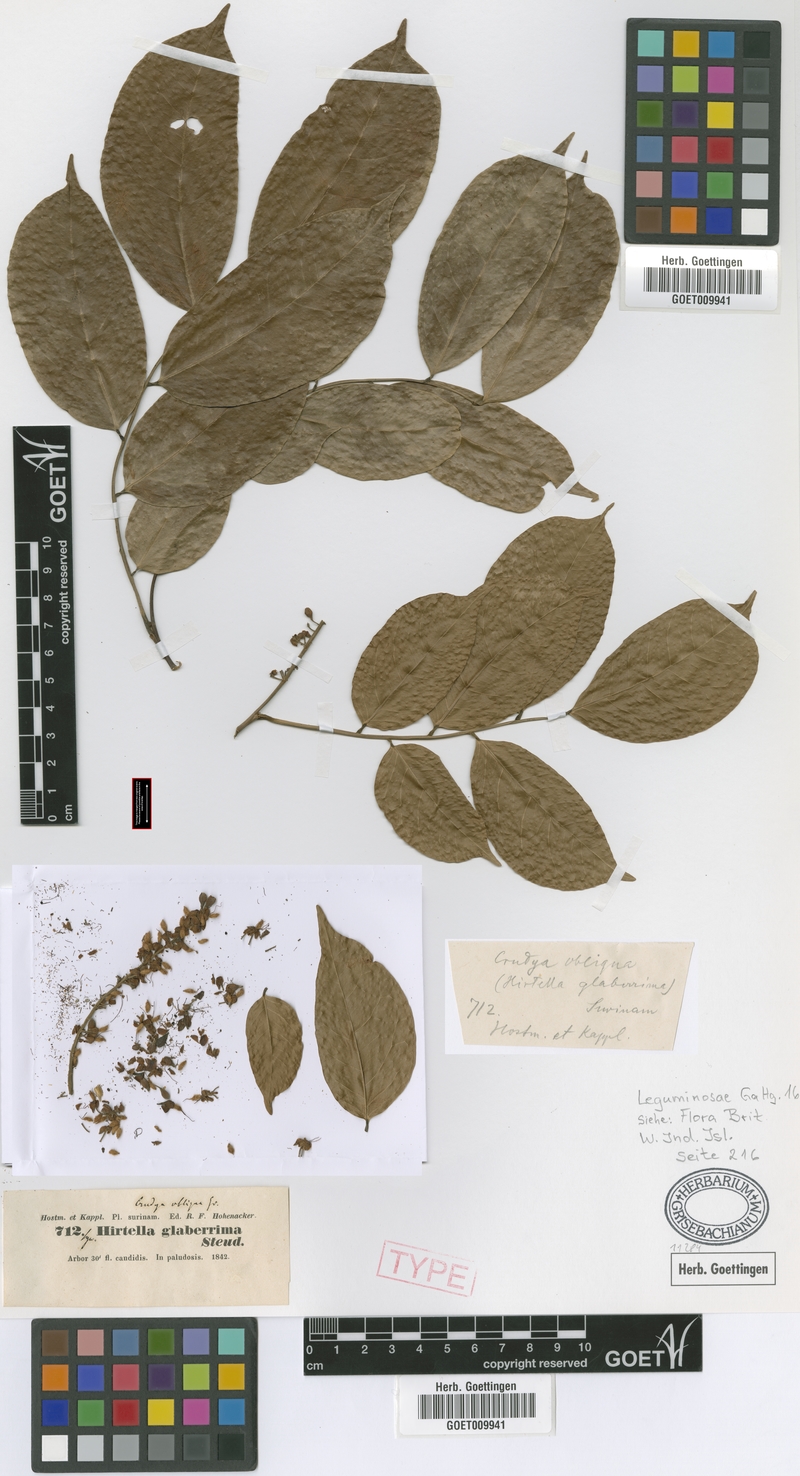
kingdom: Plantae
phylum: Tracheophyta
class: Magnoliopsida
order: Fabales
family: Fabaceae
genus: Crudia
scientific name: Crudia glaberrima
